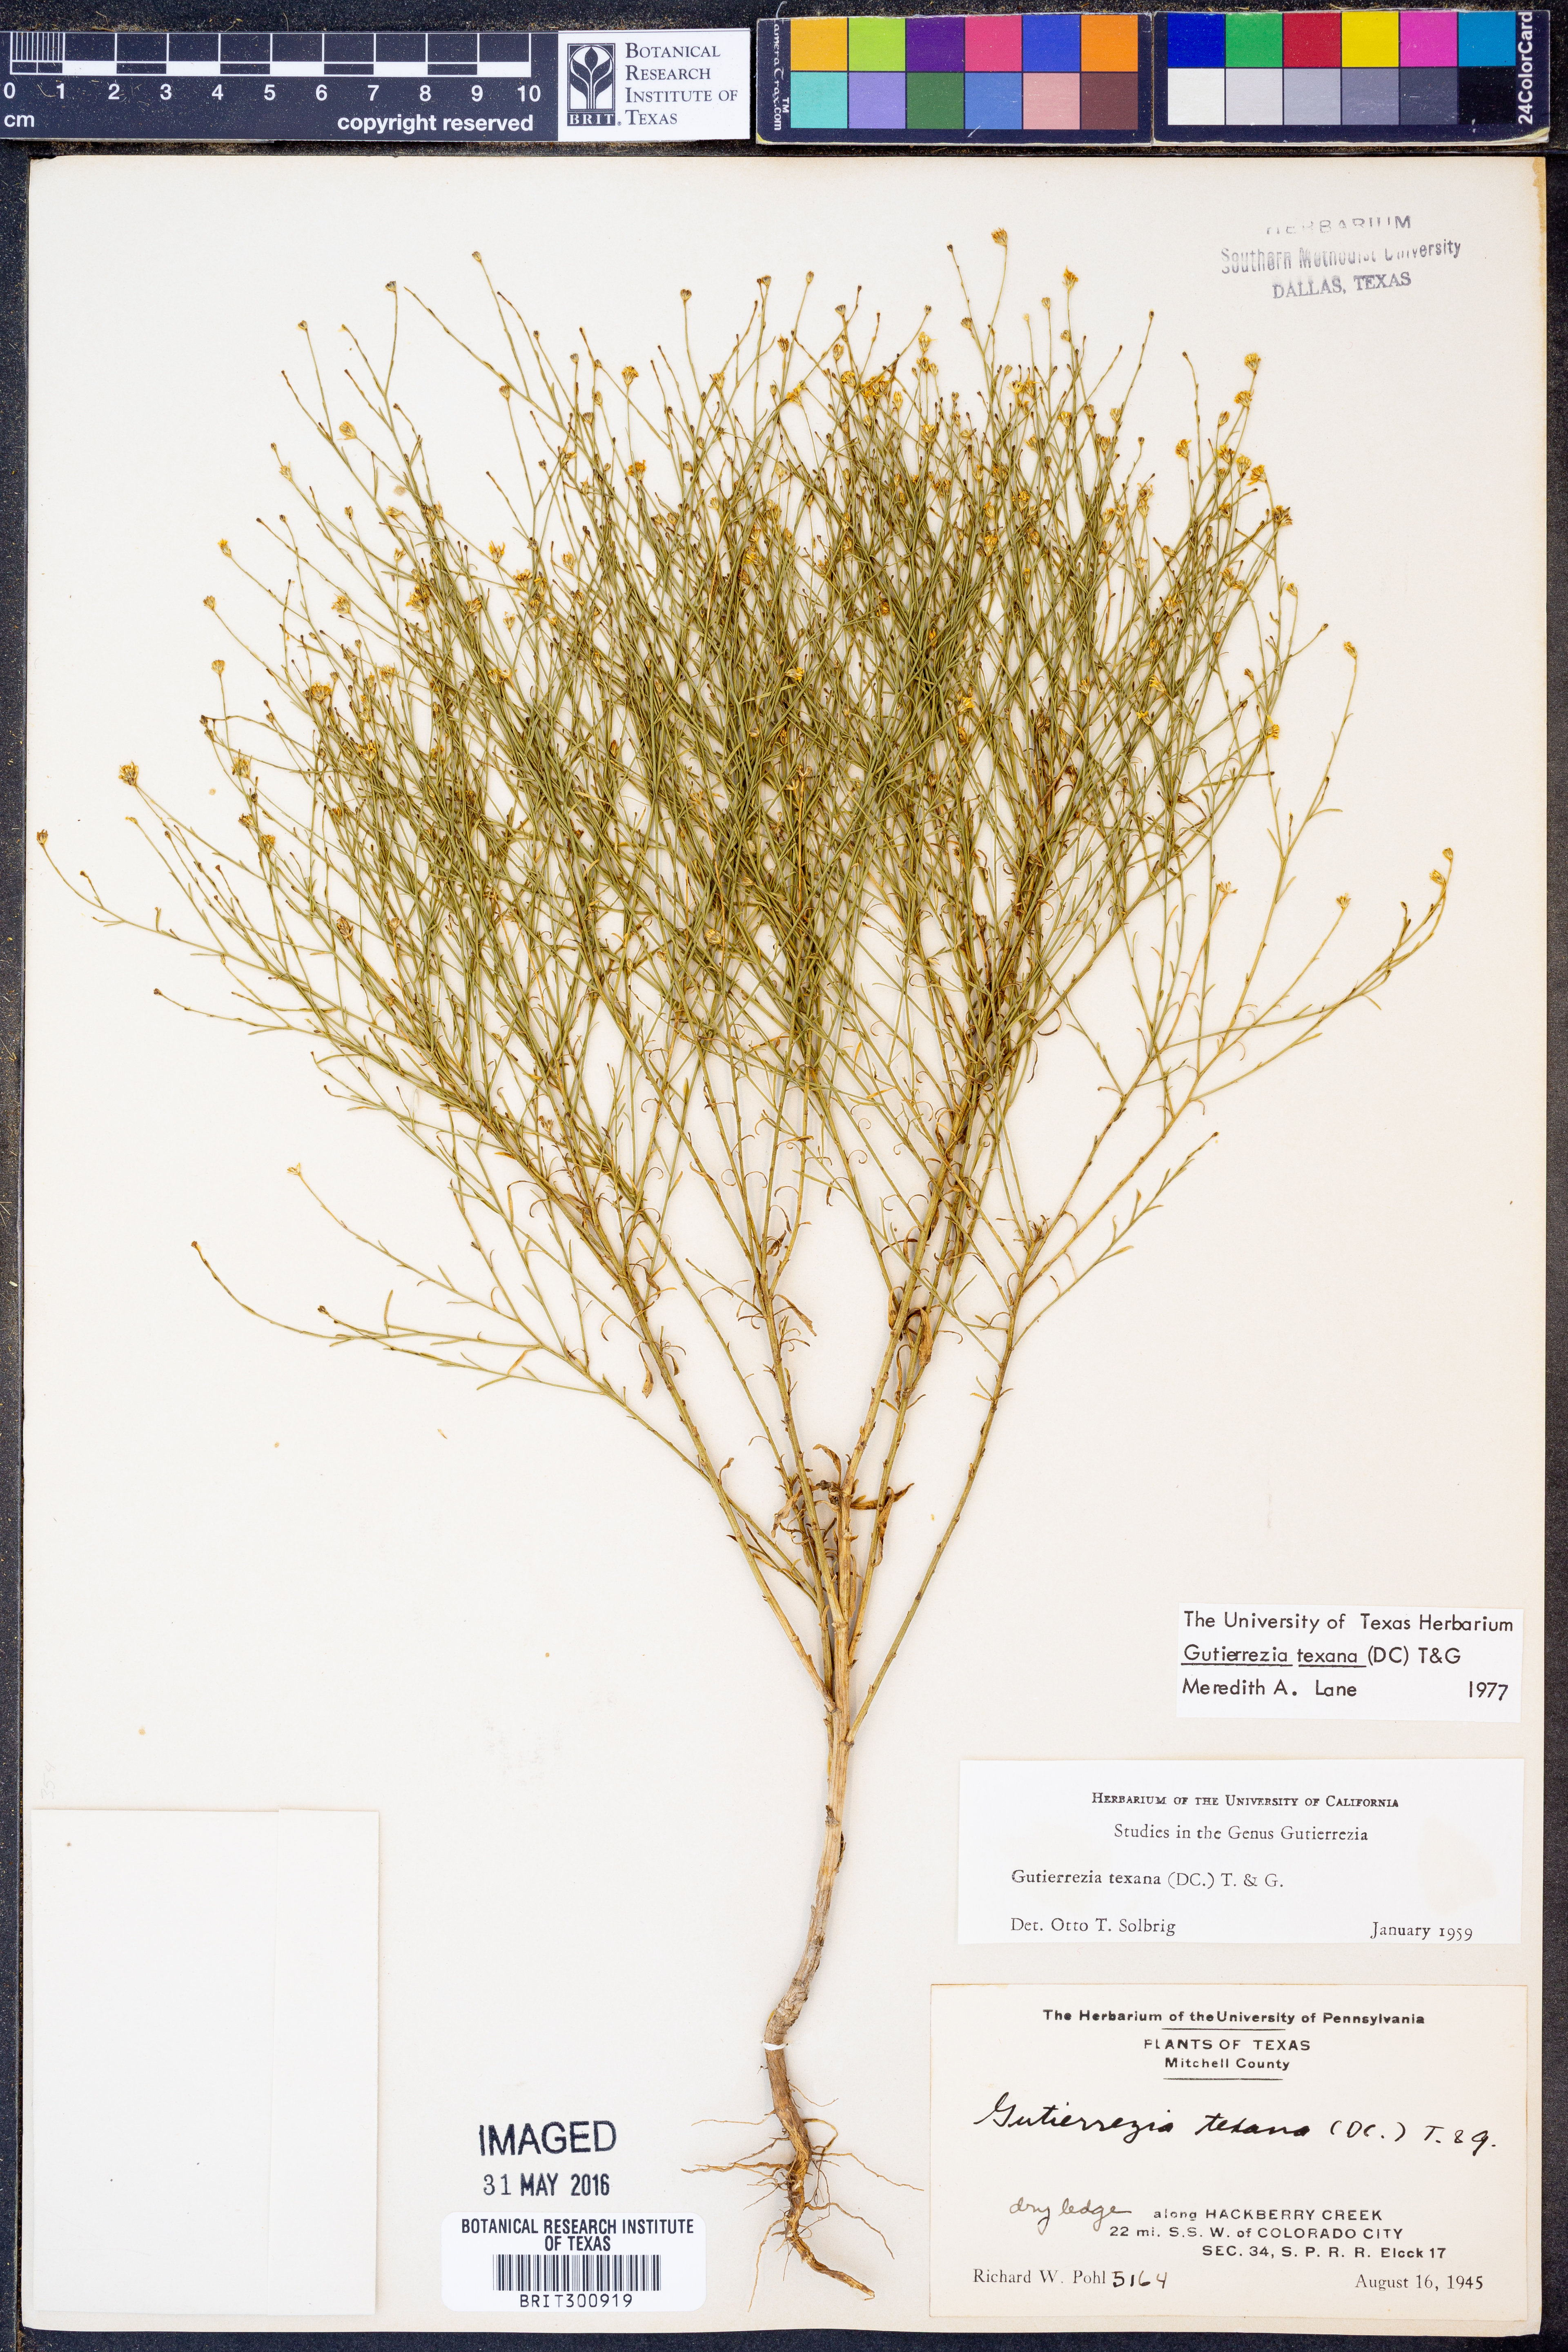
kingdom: Plantae
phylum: Tracheophyta
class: Magnoliopsida
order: Asterales
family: Asteraceae
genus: Gutierrezia
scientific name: Gutierrezia texana
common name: Texas snakeweed
